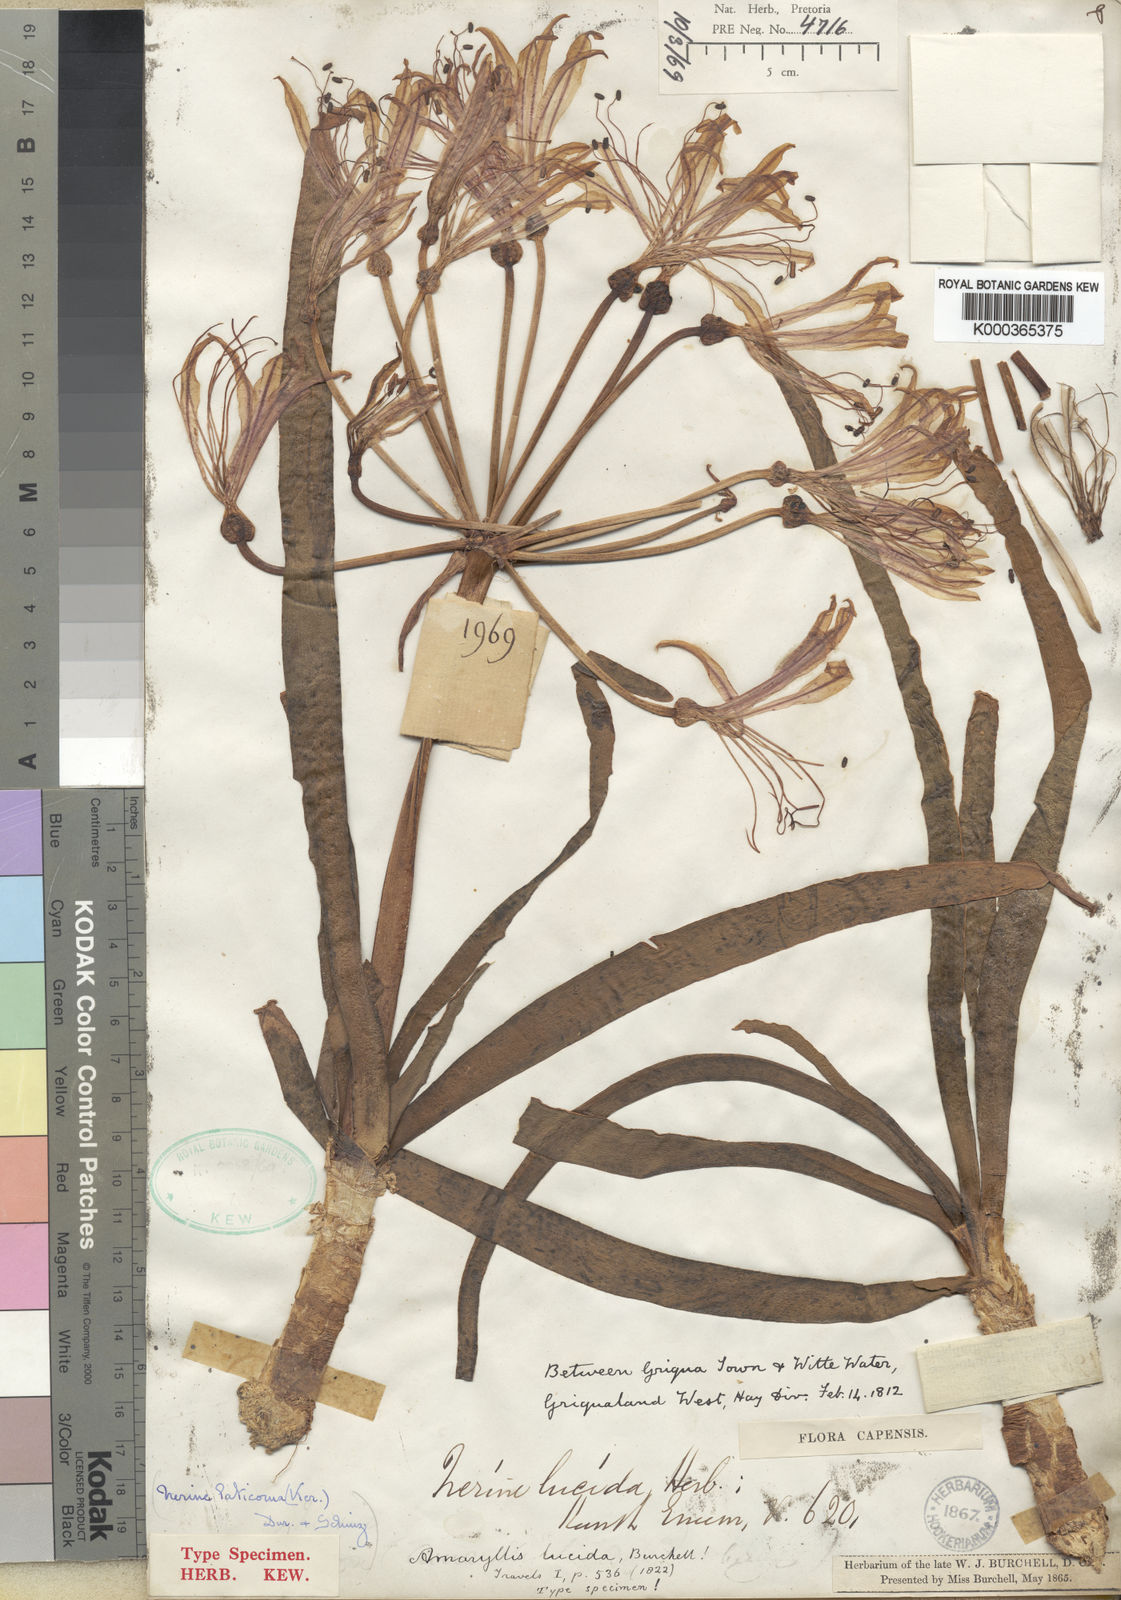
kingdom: Plantae
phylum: Tracheophyta
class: Liliopsida
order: Asparagales
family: Amaryllidaceae
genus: Nerine
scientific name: Nerine laticoma
